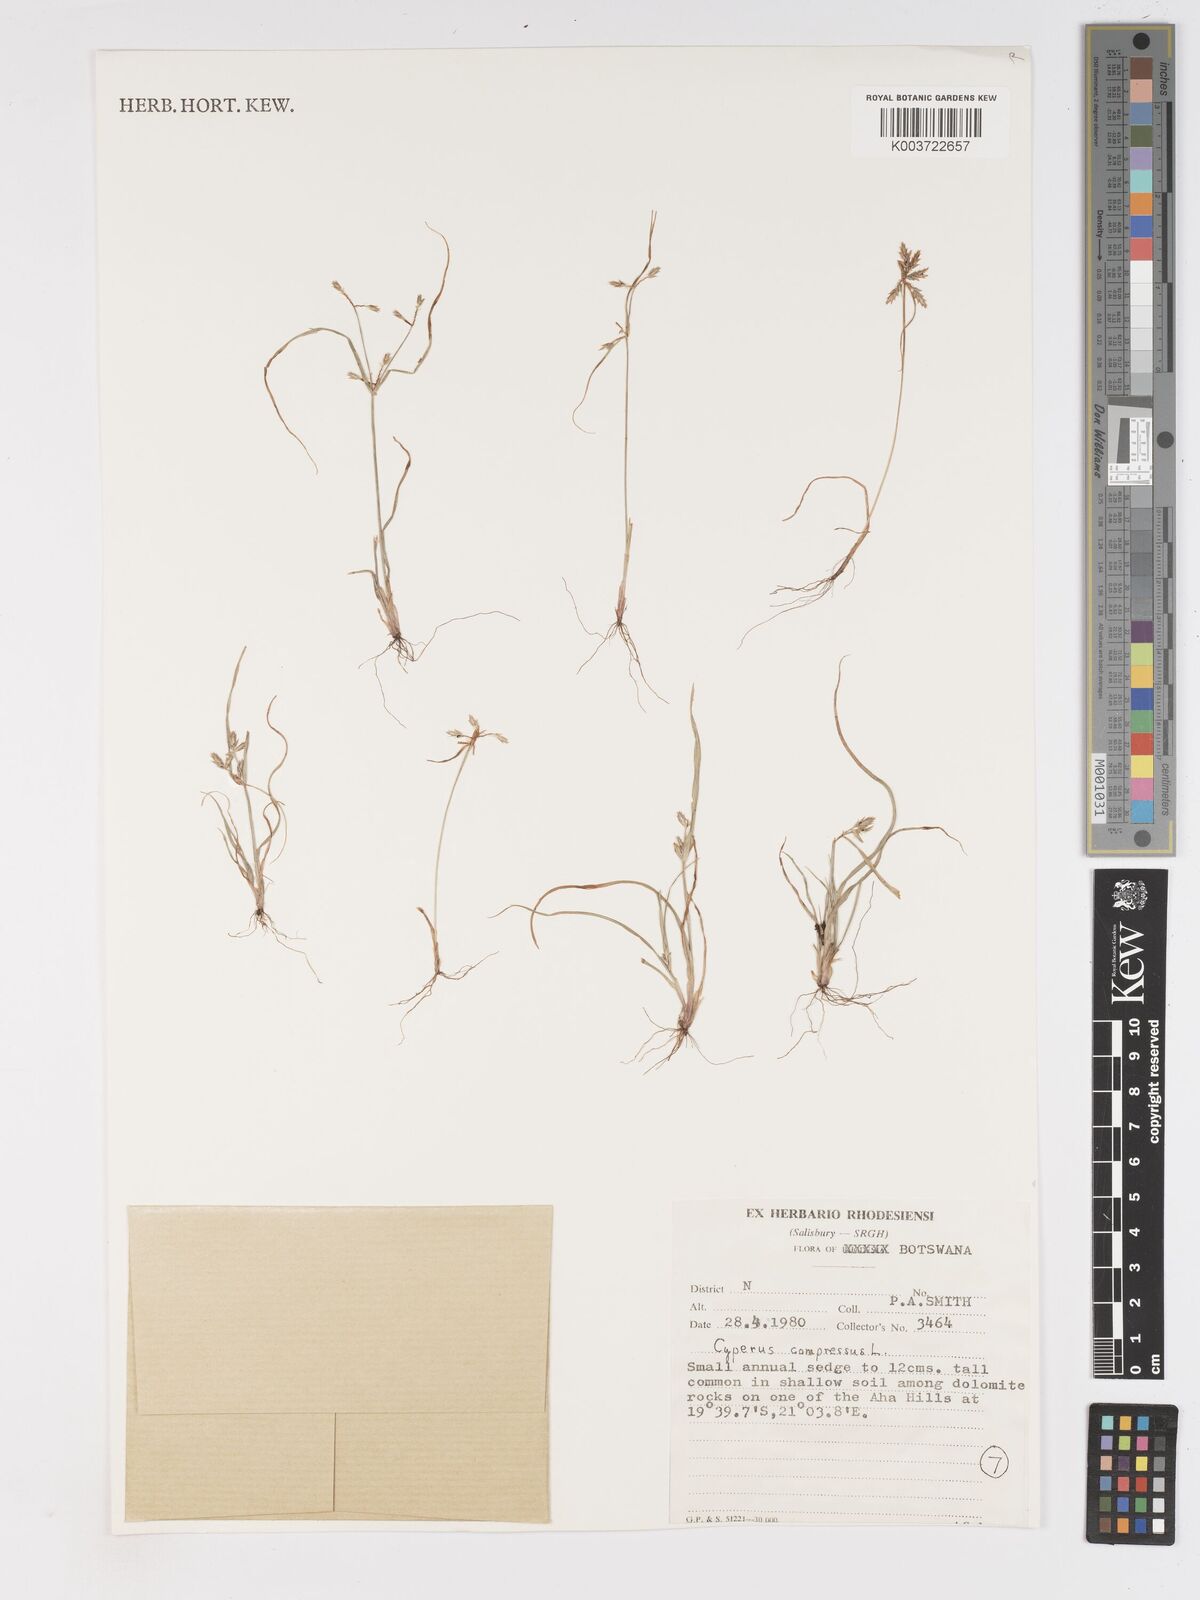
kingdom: Plantae
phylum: Tracheophyta
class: Liliopsida
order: Poales
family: Cyperaceae
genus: Cyperus
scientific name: Cyperus compressus
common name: Poorland flatsedge
